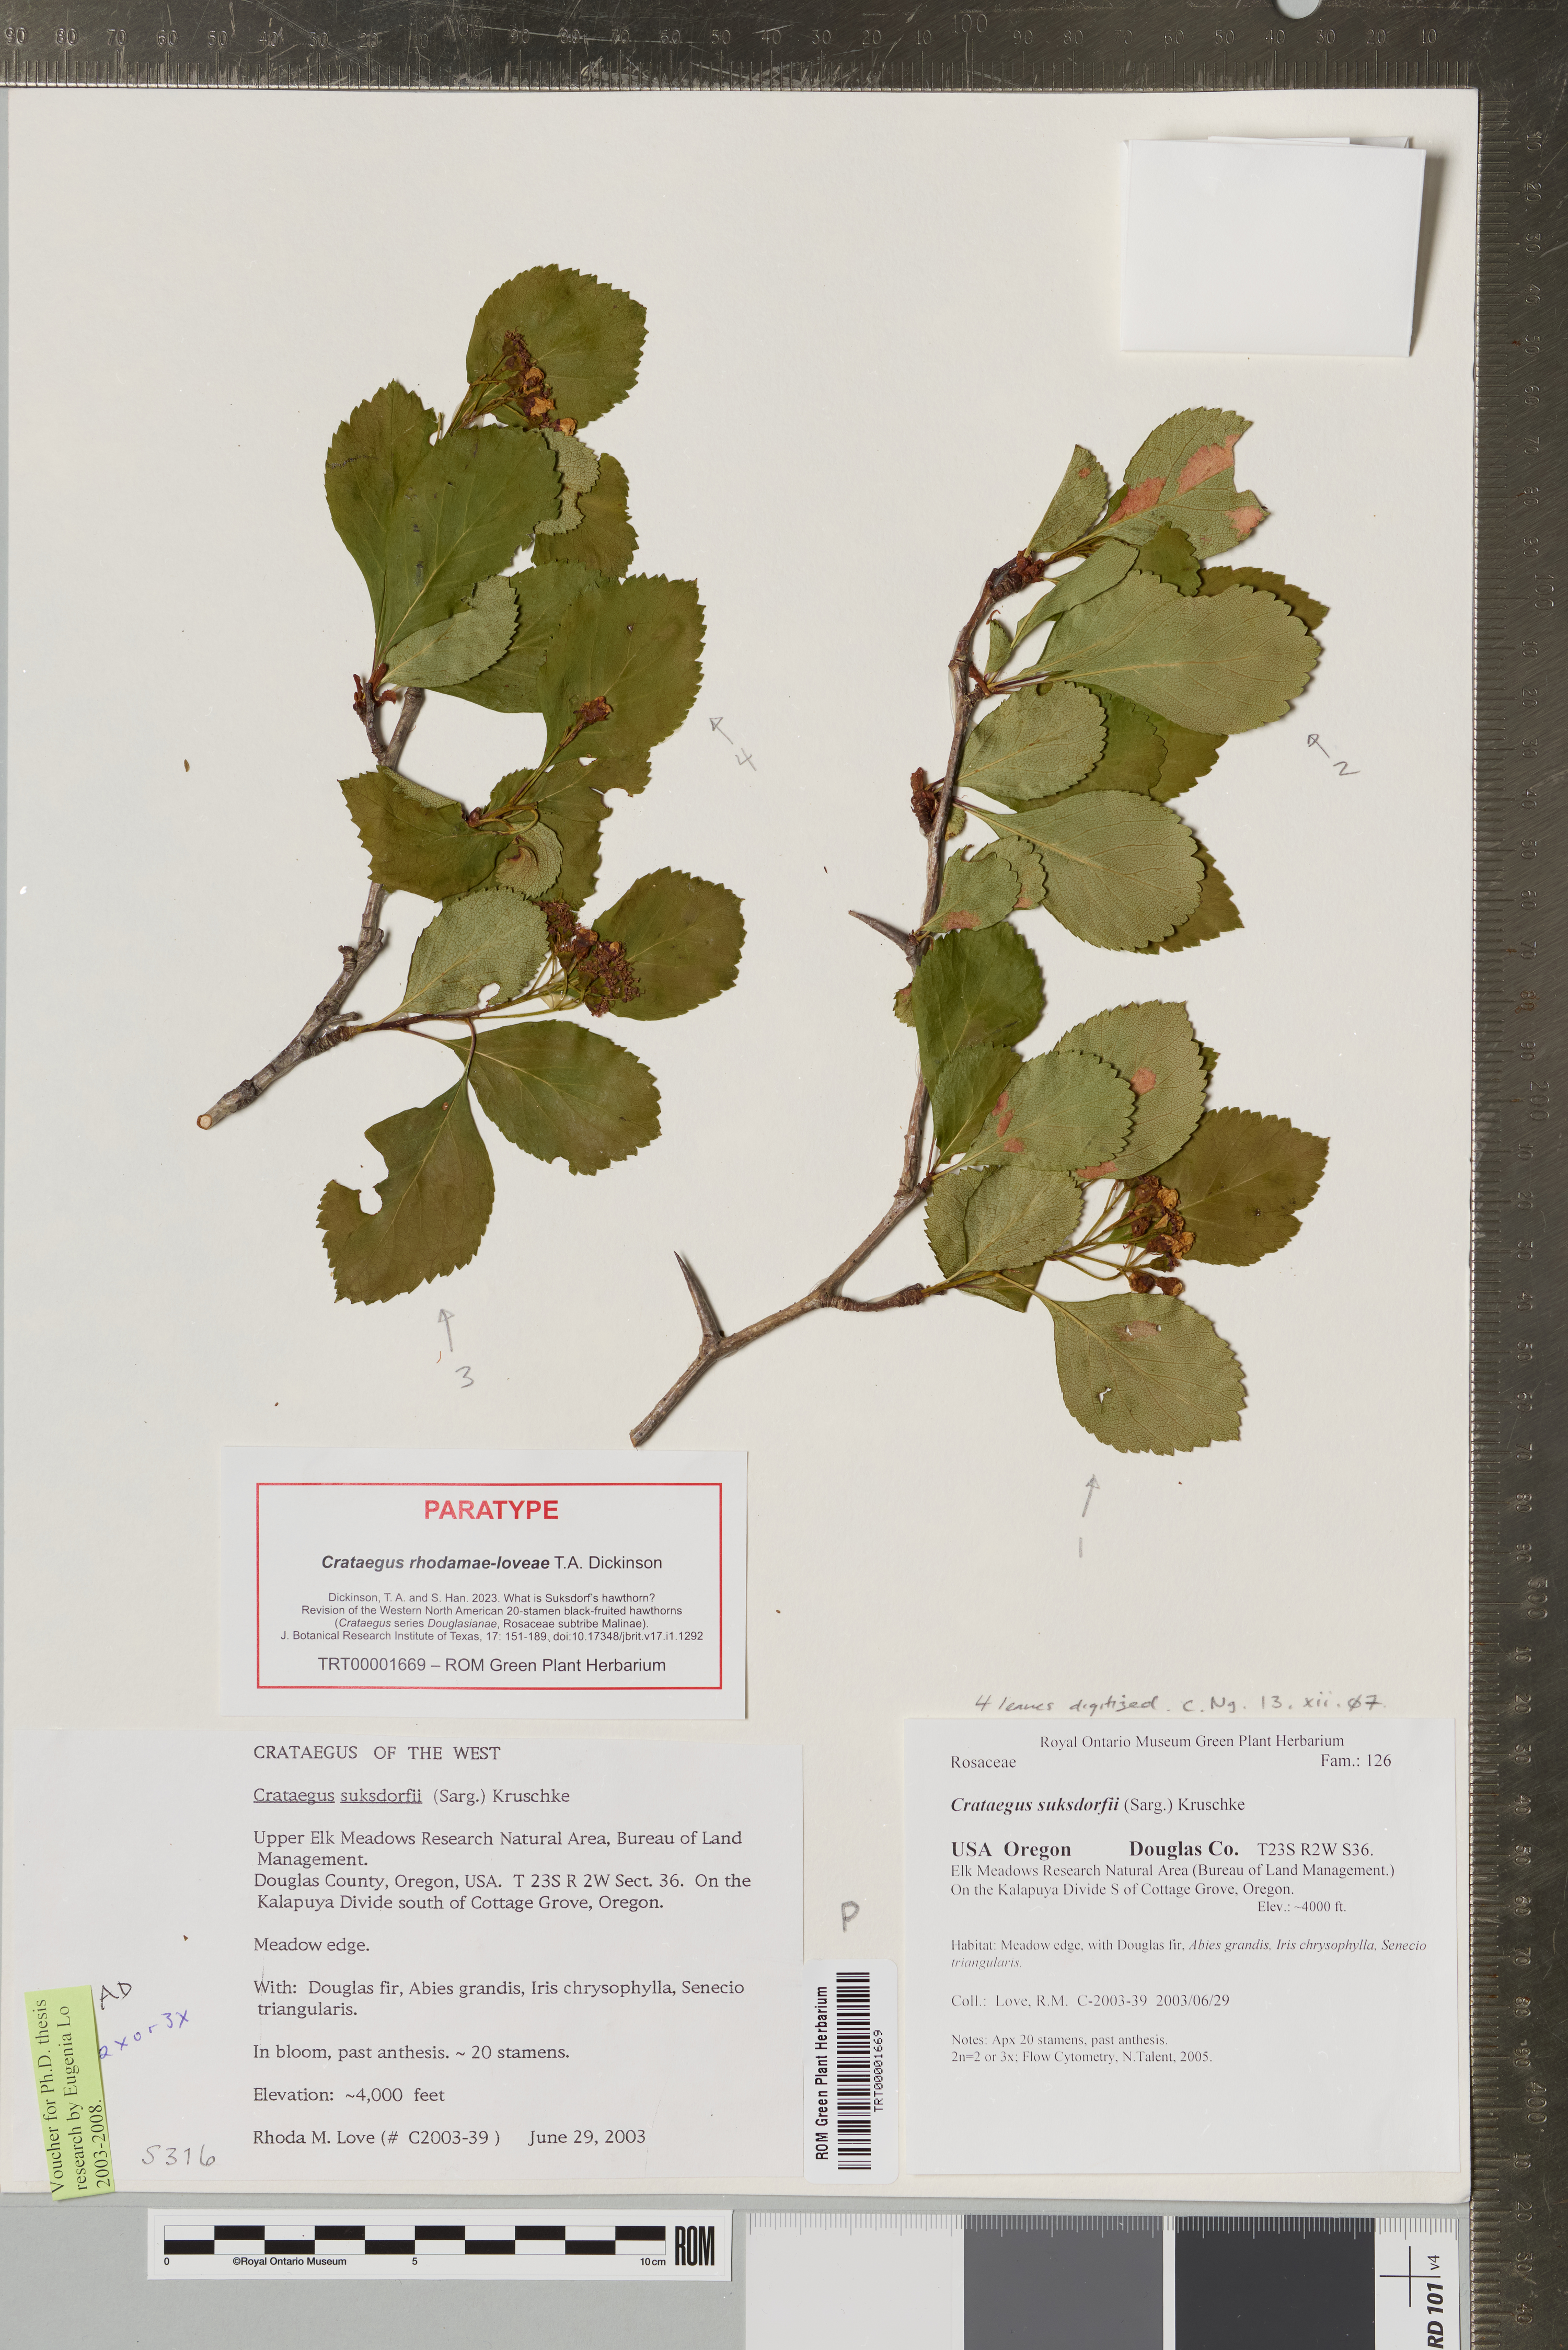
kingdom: Plantae
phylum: Tracheophyta
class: Magnoliopsida
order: Rosales
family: Rosaceae
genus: Crataegus
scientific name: Crataegus gaylussacia
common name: Huckleberry hawthorn
